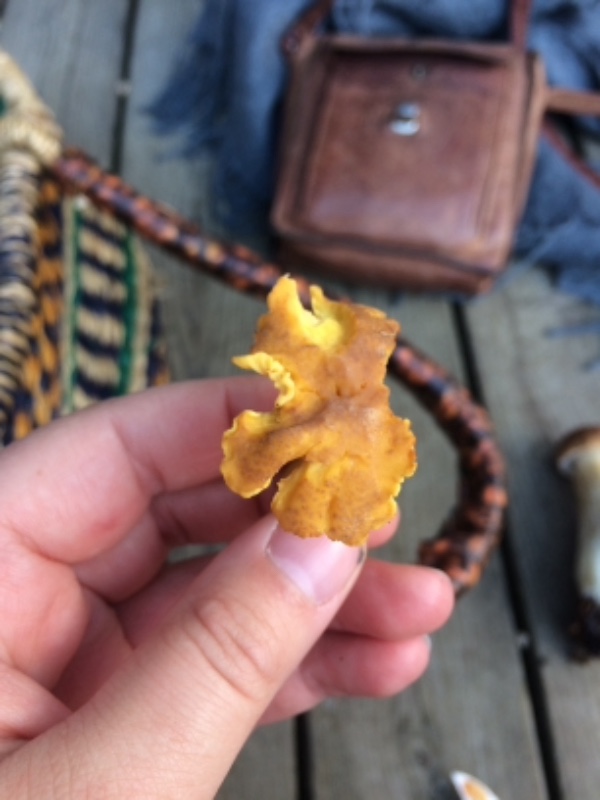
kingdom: Fungi
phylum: Basidiomycota
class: Agaricomycetes
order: Cantharellales
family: Hydnaceae
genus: Cantharellus
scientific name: Cantharellus amethysteus
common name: ametyst-kantarel
